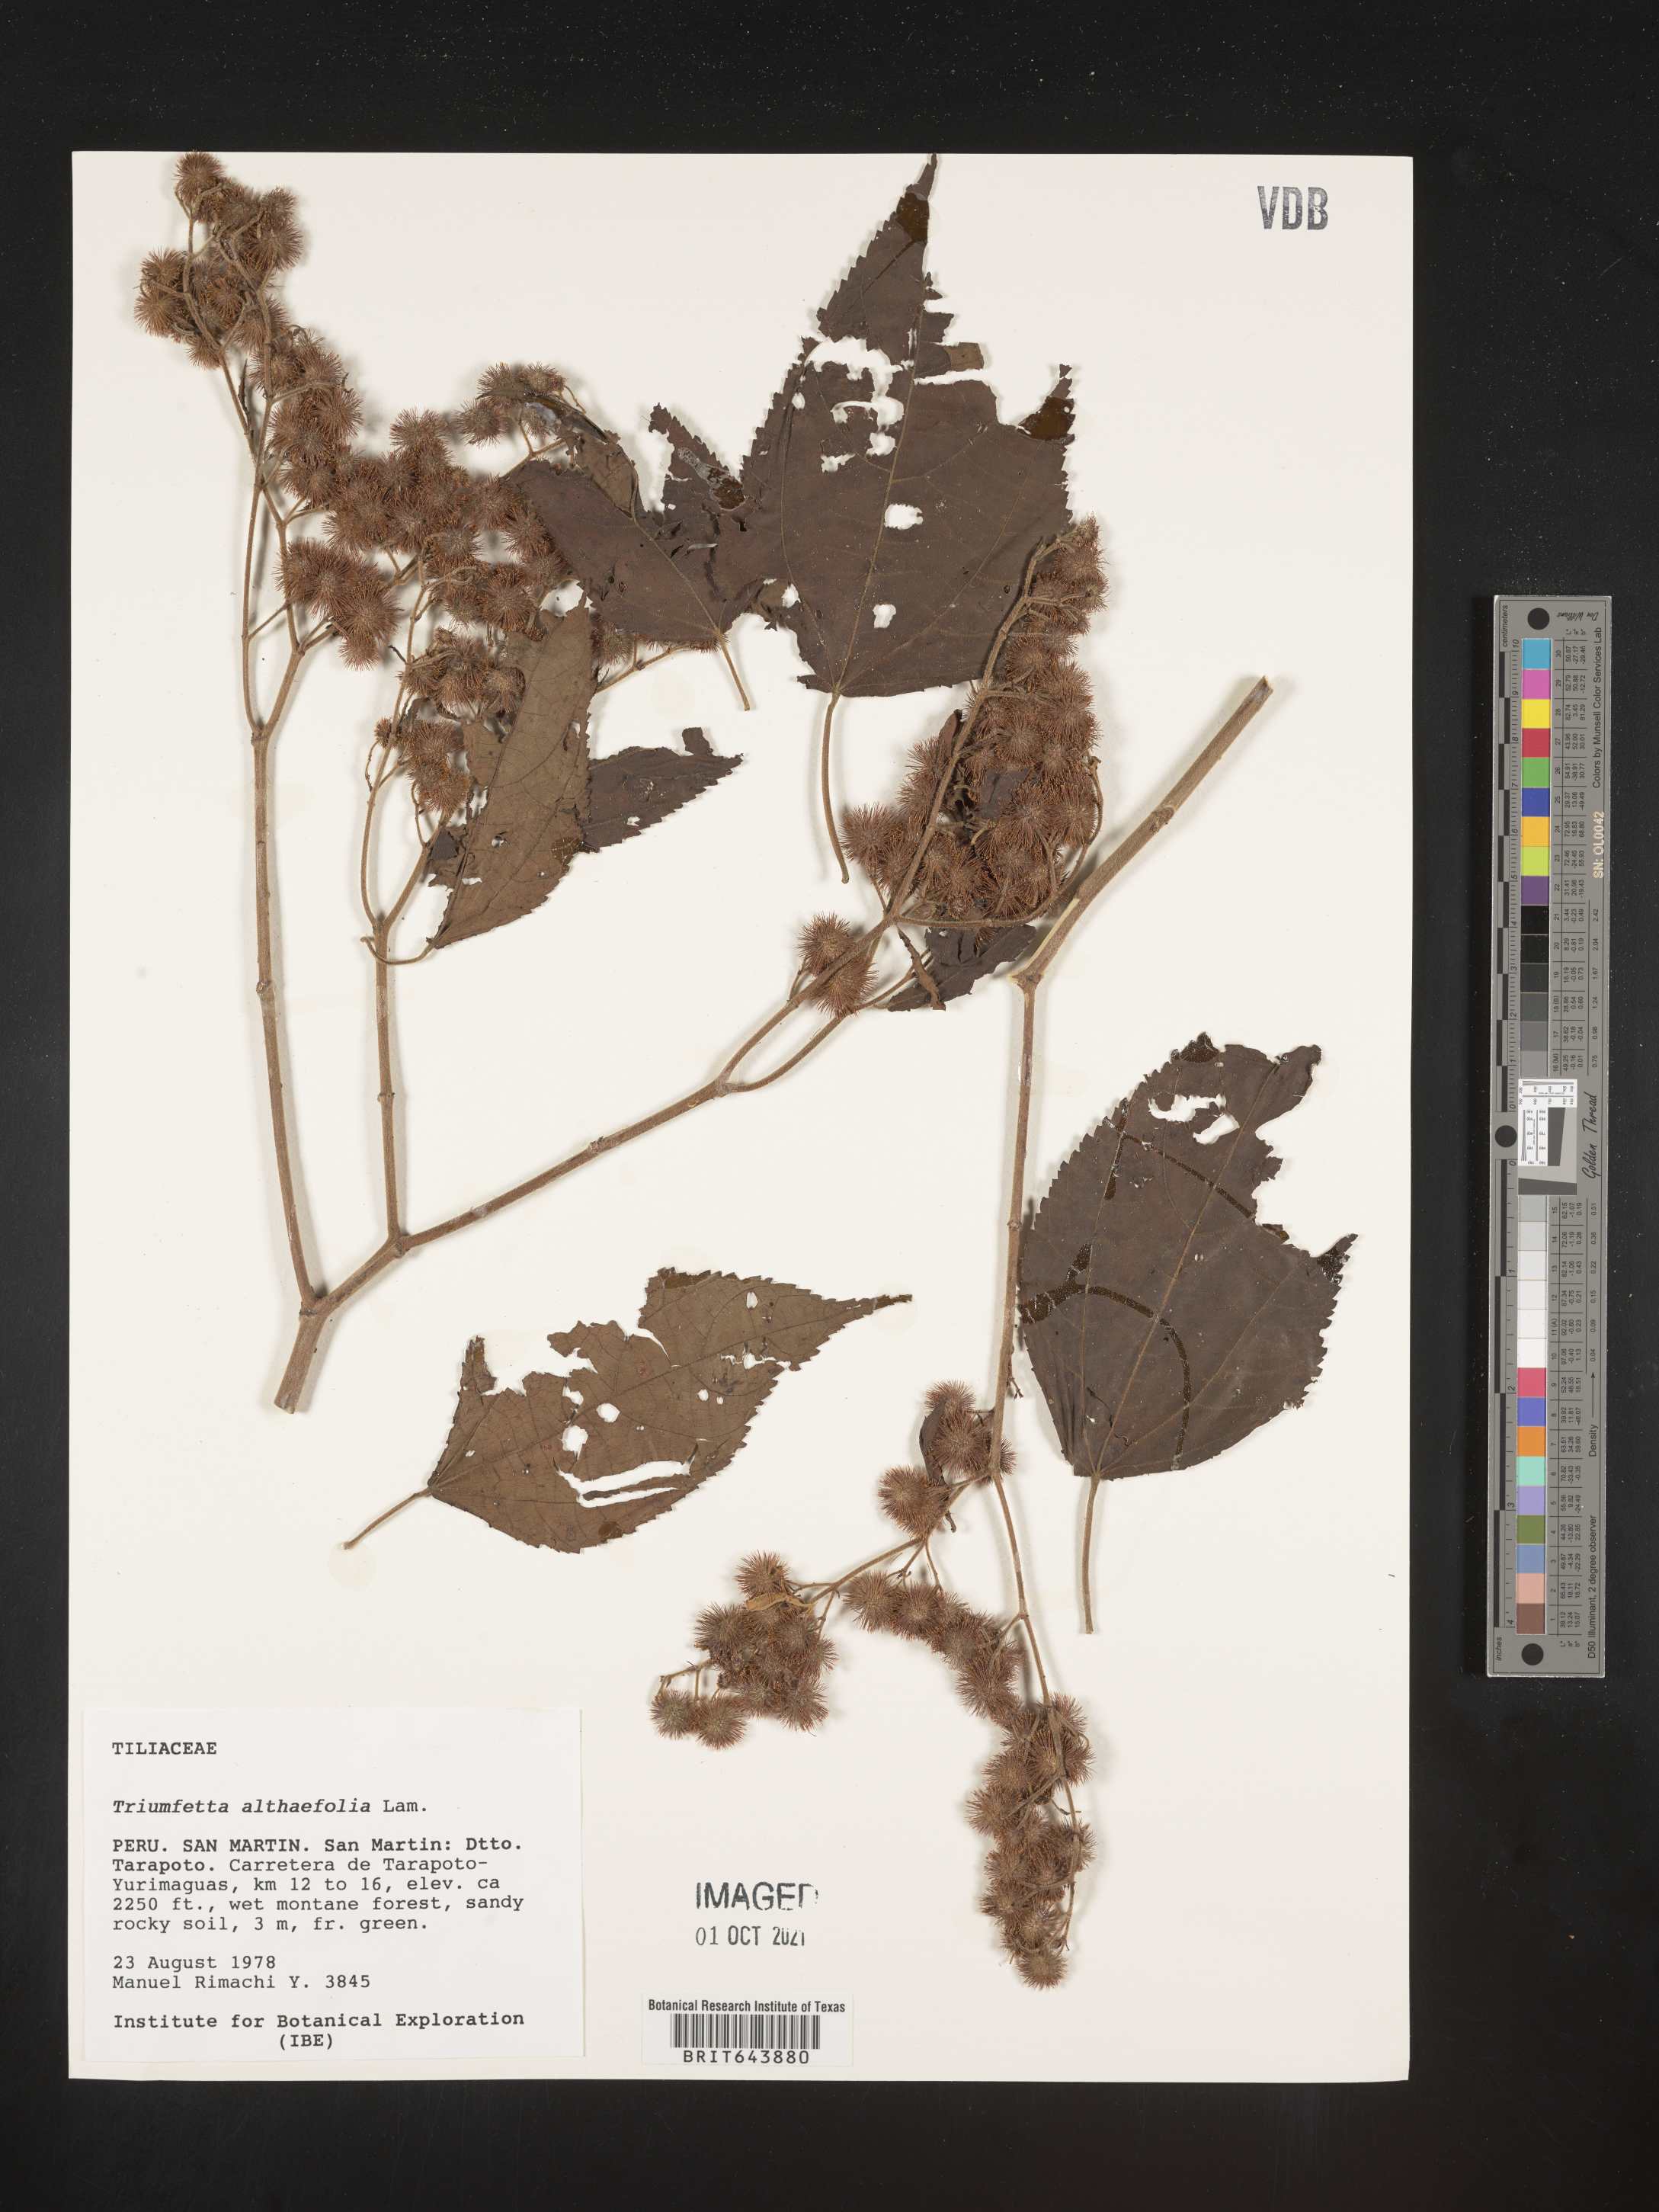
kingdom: Plantae
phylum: Tracheophyta
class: Magnoliopsida
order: Malvales
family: Malvaceae
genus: Triumfetta
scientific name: Triumfetta
